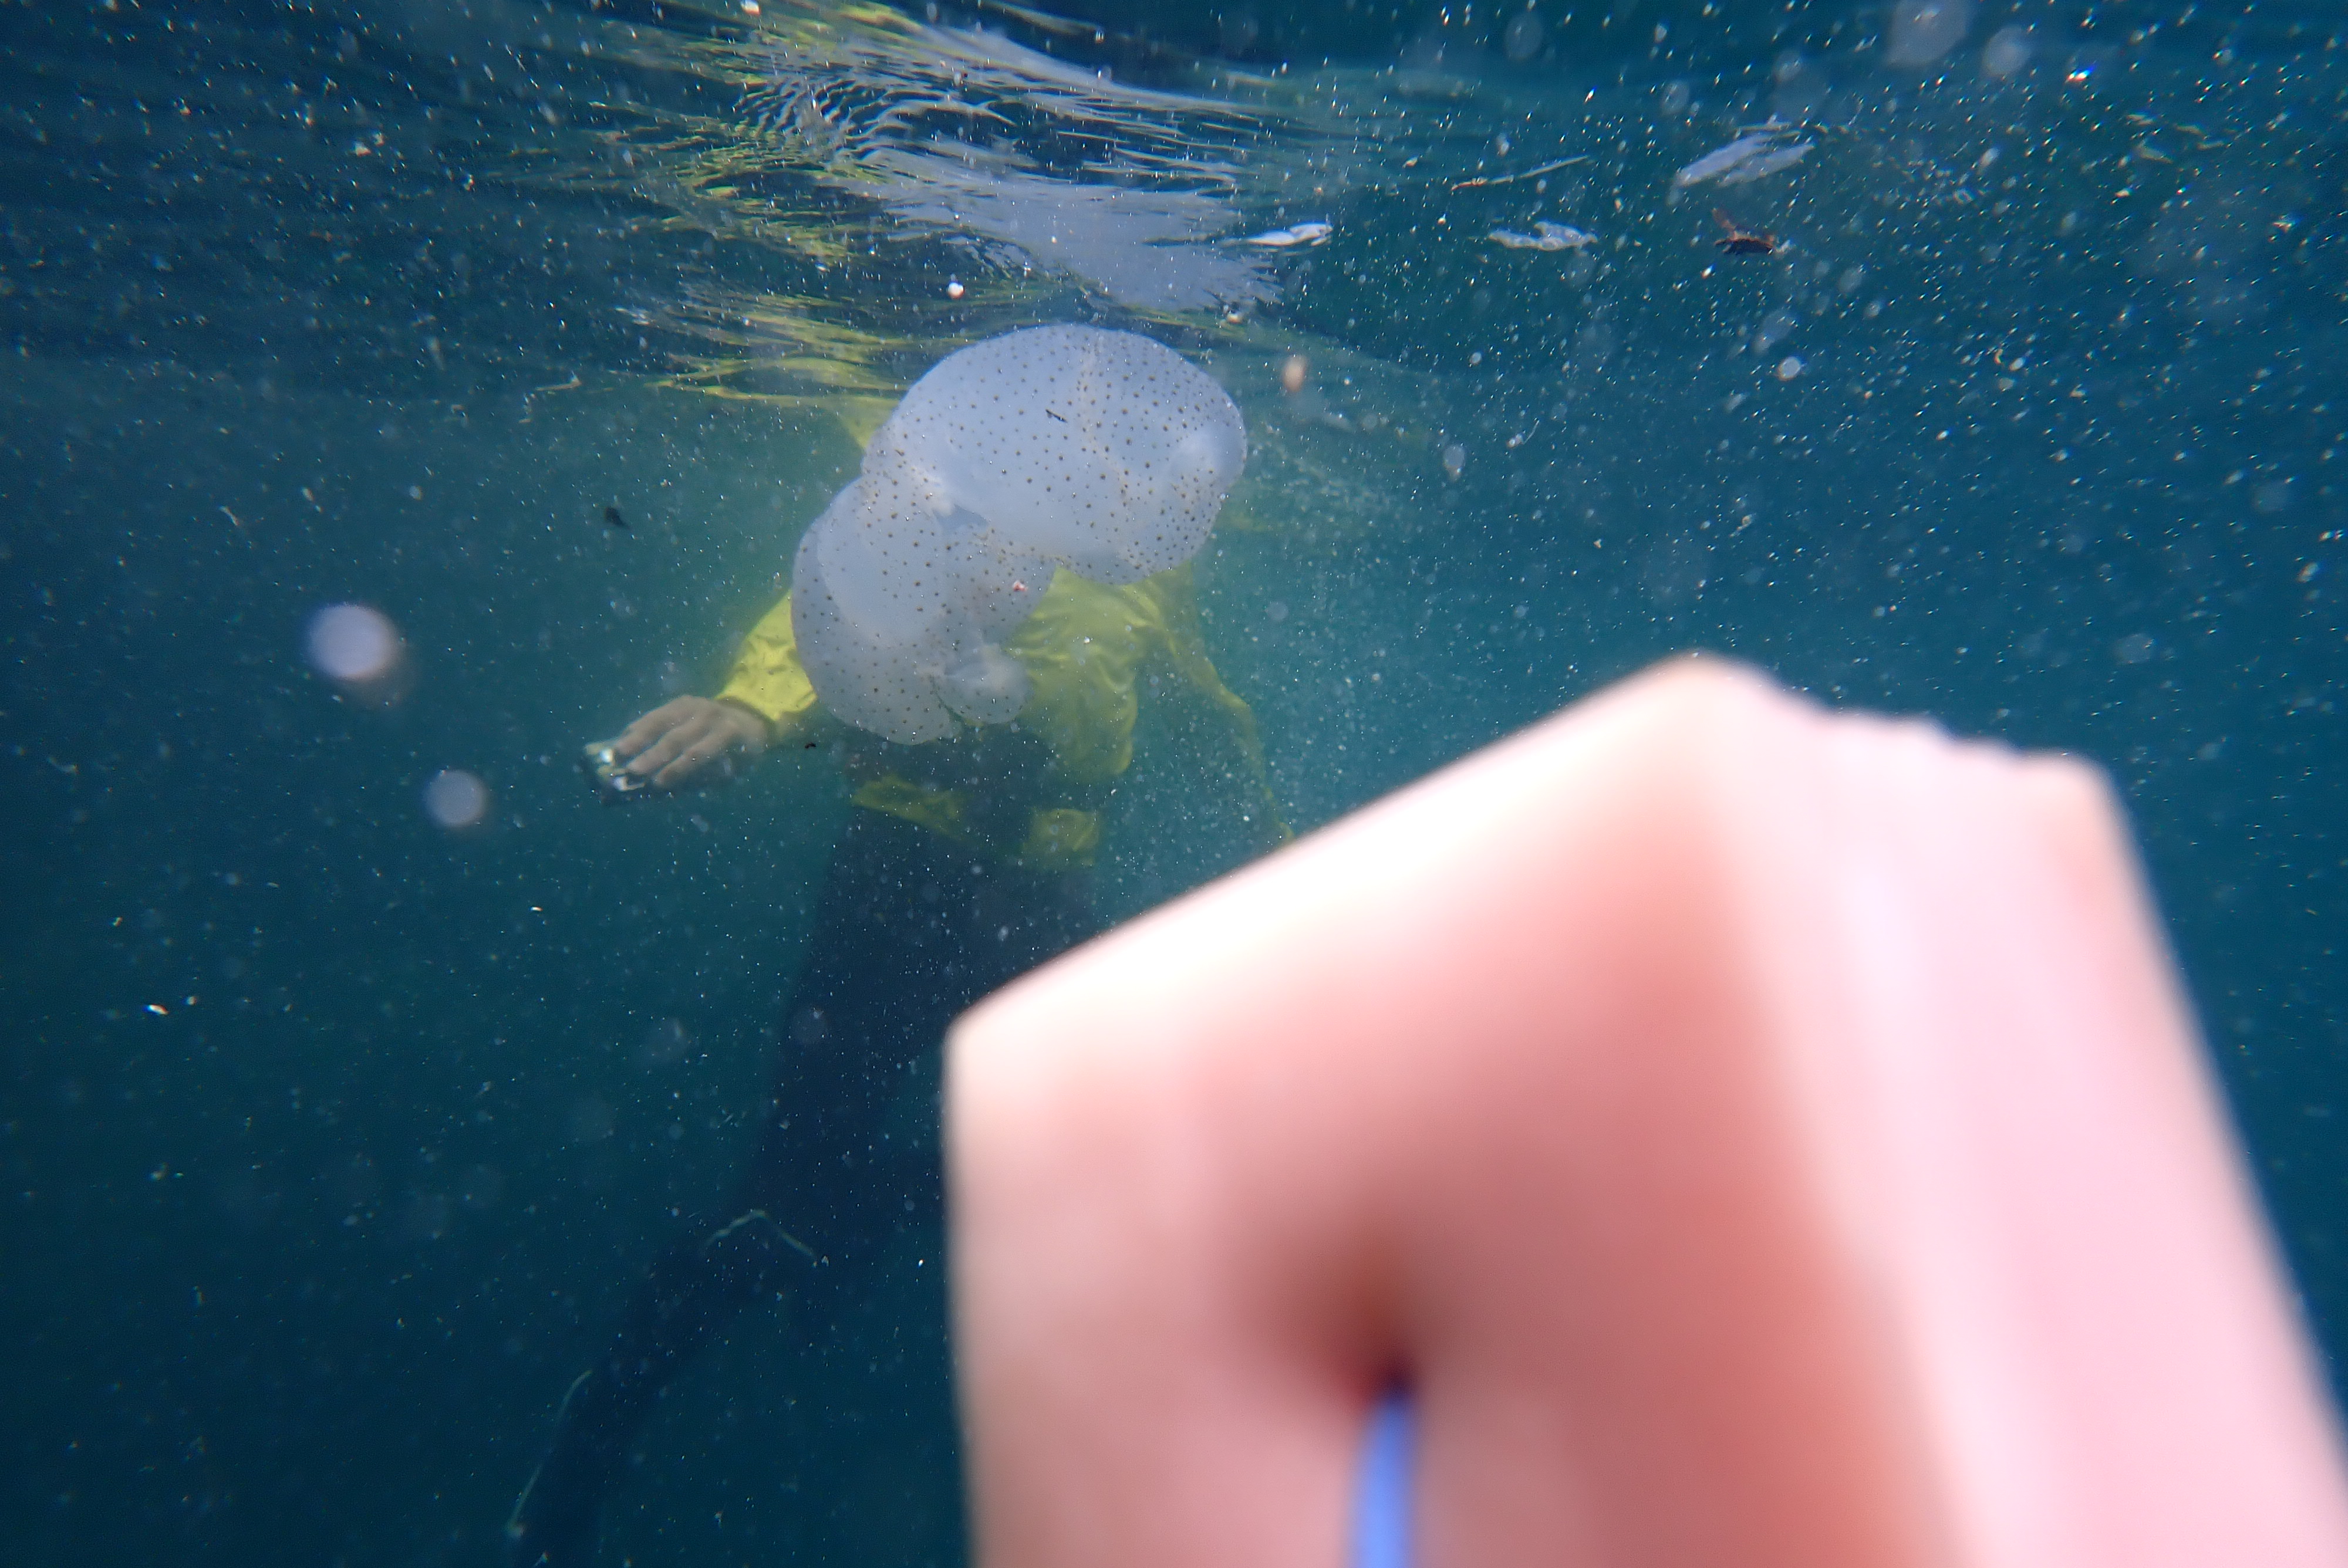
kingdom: Animalia
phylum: Cnidaria
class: Scyphozoa
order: Rhizostomeae
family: Rhizostomatidae
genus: Rhopilema
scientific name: Rhopilema hispidum
